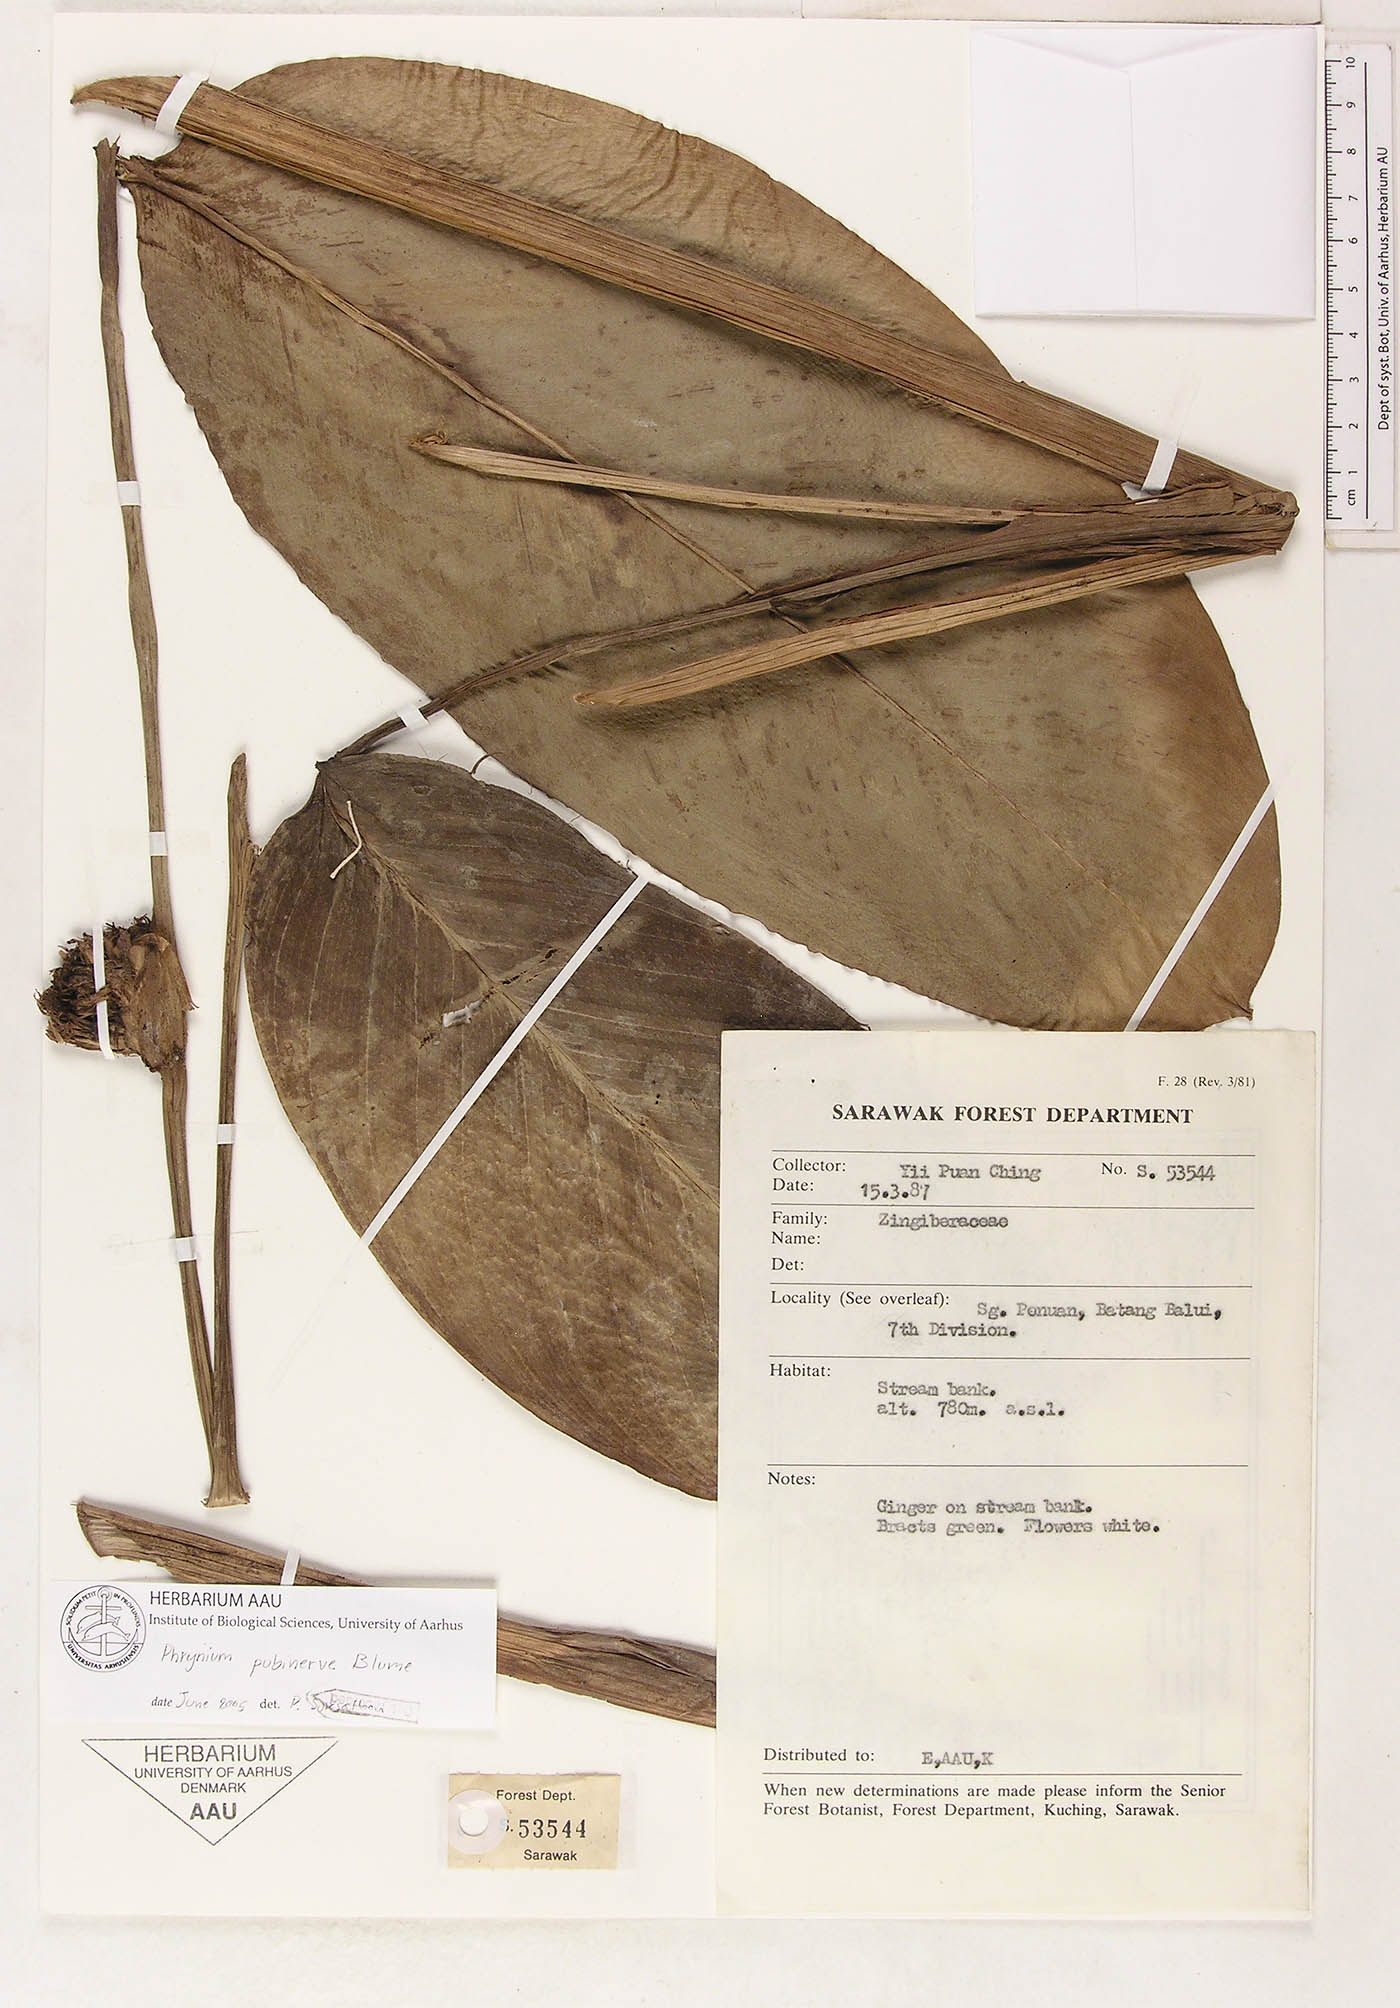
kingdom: Plantae
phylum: Tracheophyta
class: Liliopsida
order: Zingiberales
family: Marantaceae
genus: Phrynium
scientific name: Phrynium pubinerve
